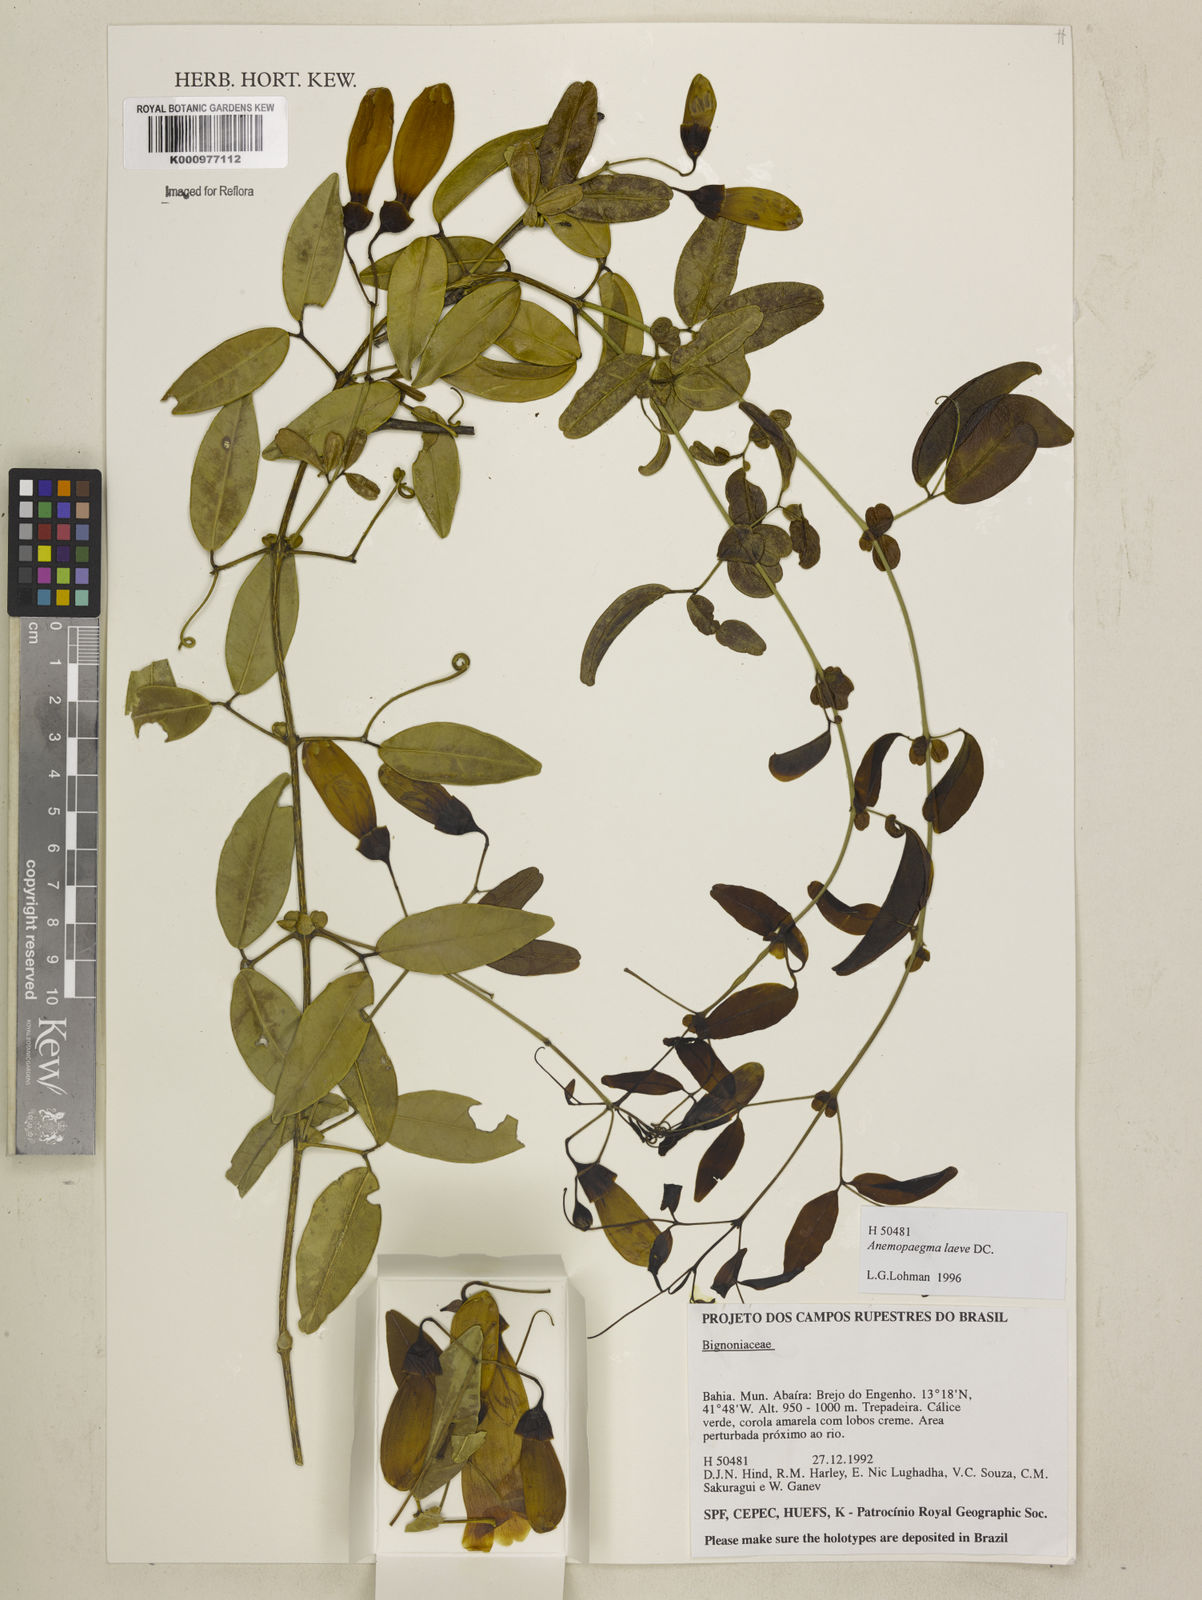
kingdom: Plantae
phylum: Tracheophyta
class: Magnoliopsida
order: Lamiales
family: Bignoniaceae
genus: Anemopaegma
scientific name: Anemopaegma laeve
